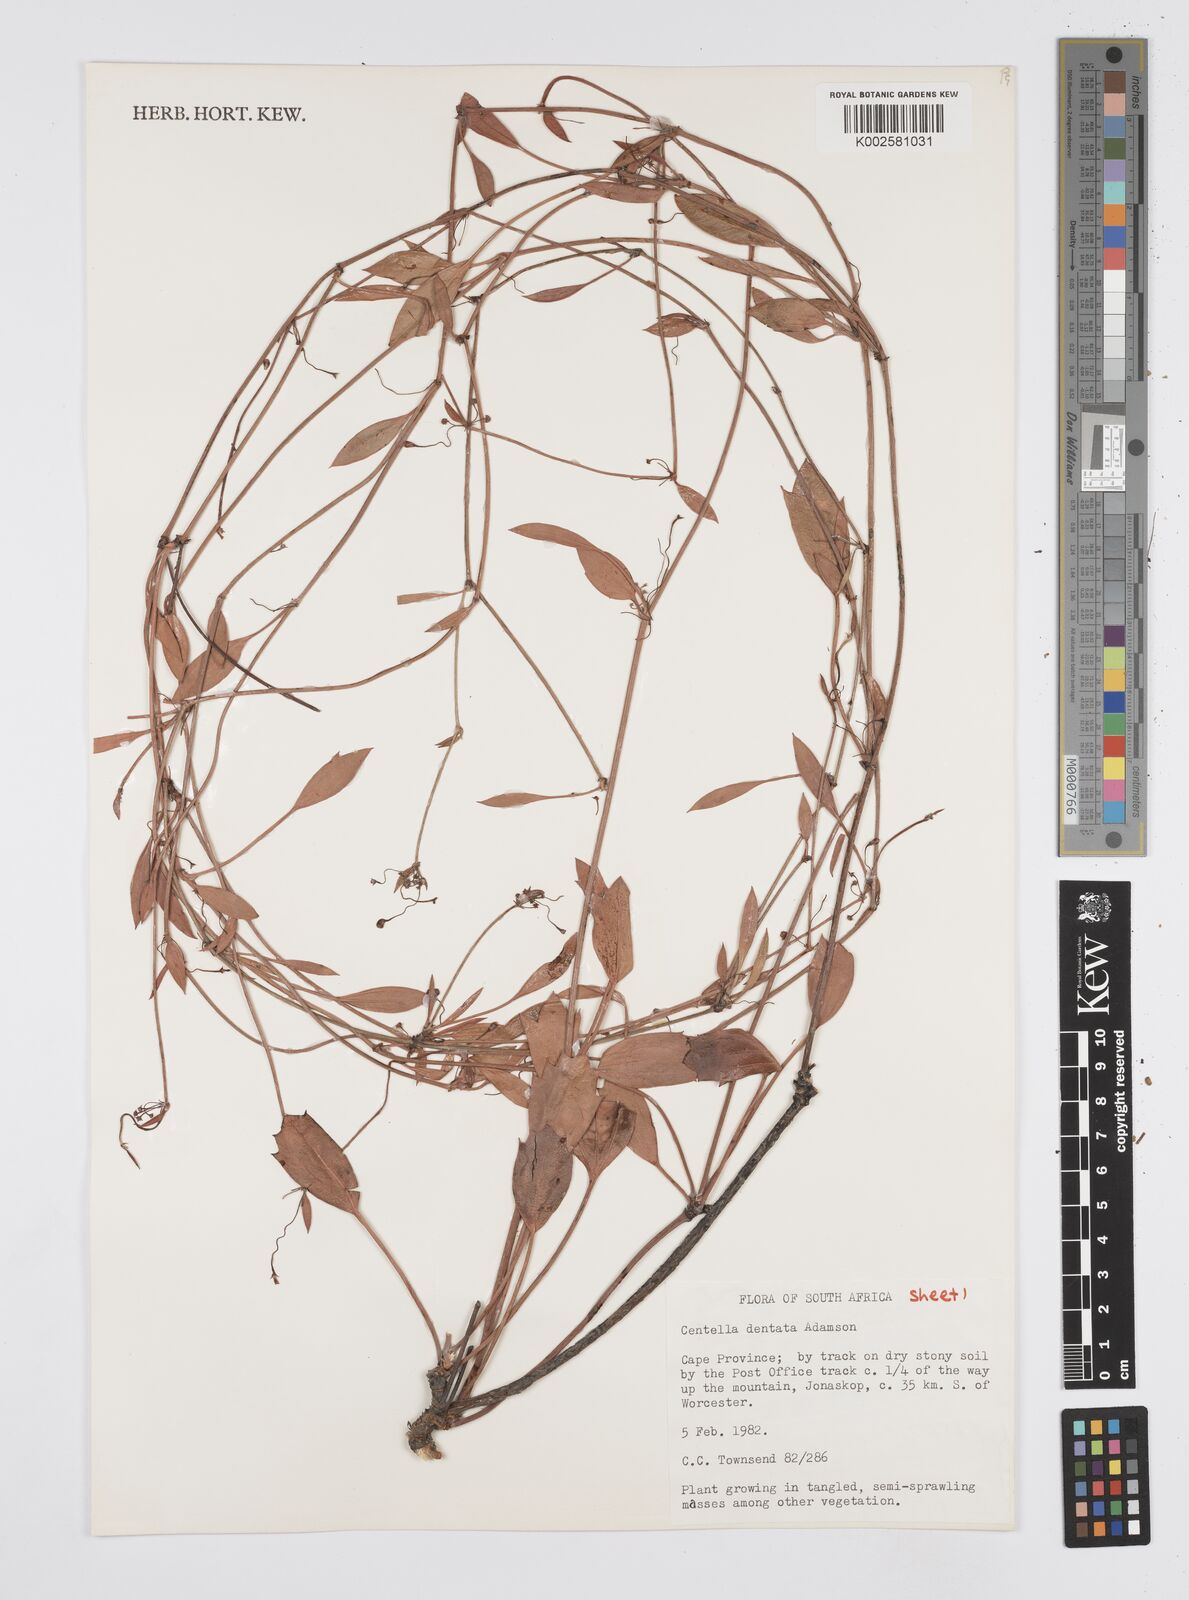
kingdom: Plantae
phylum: Tracheophyta
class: Magnoliopsida
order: Apiales
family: Apiaceae
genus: Centella
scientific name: Centella dentata
